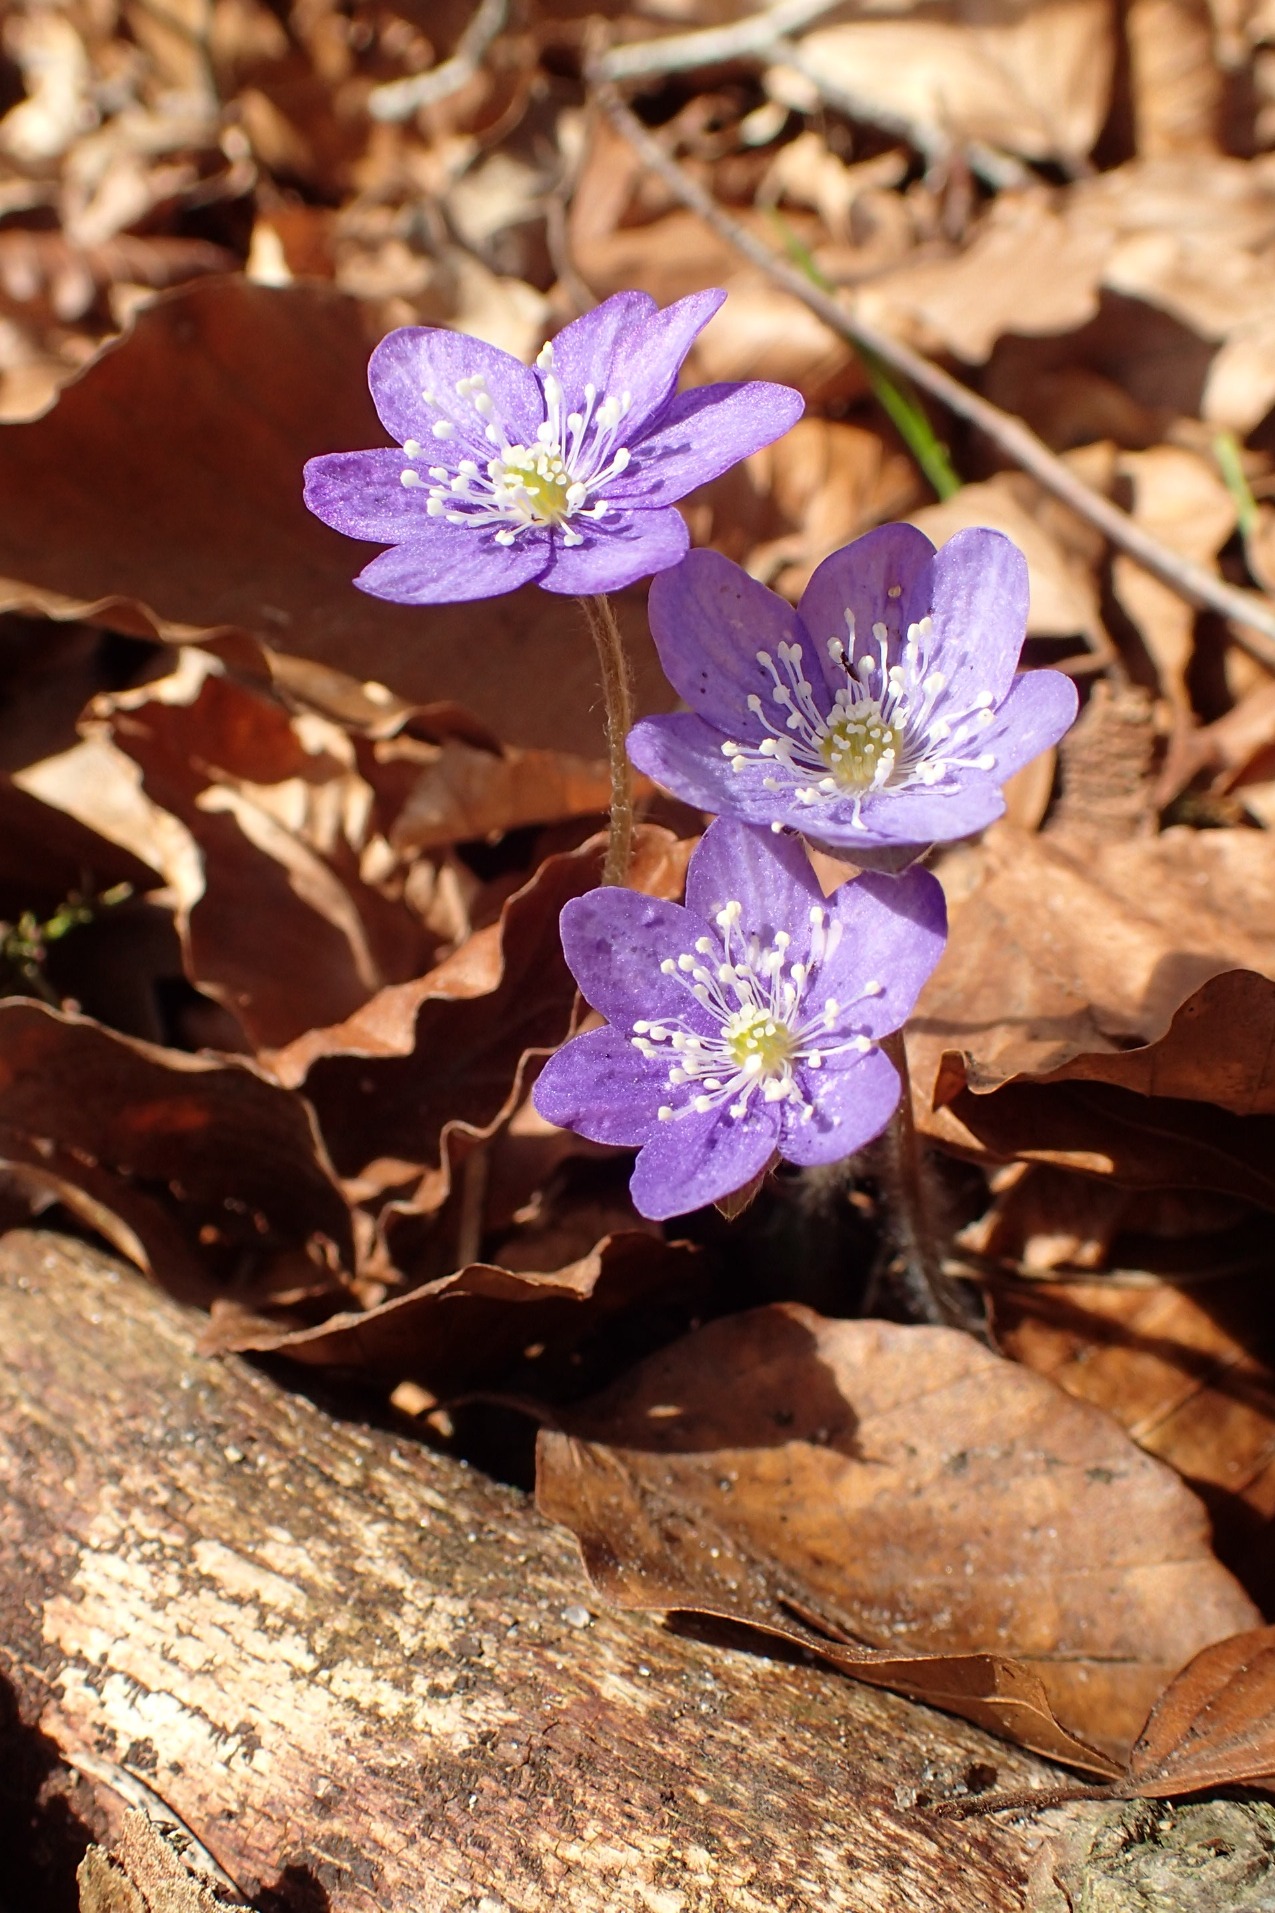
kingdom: Plantae
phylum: Tracheophyta
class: Magnoliopsida
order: Ranunculales
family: Ranunculaceae
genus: Hepatica
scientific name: Hepatica nobilis
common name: Blå anemone
